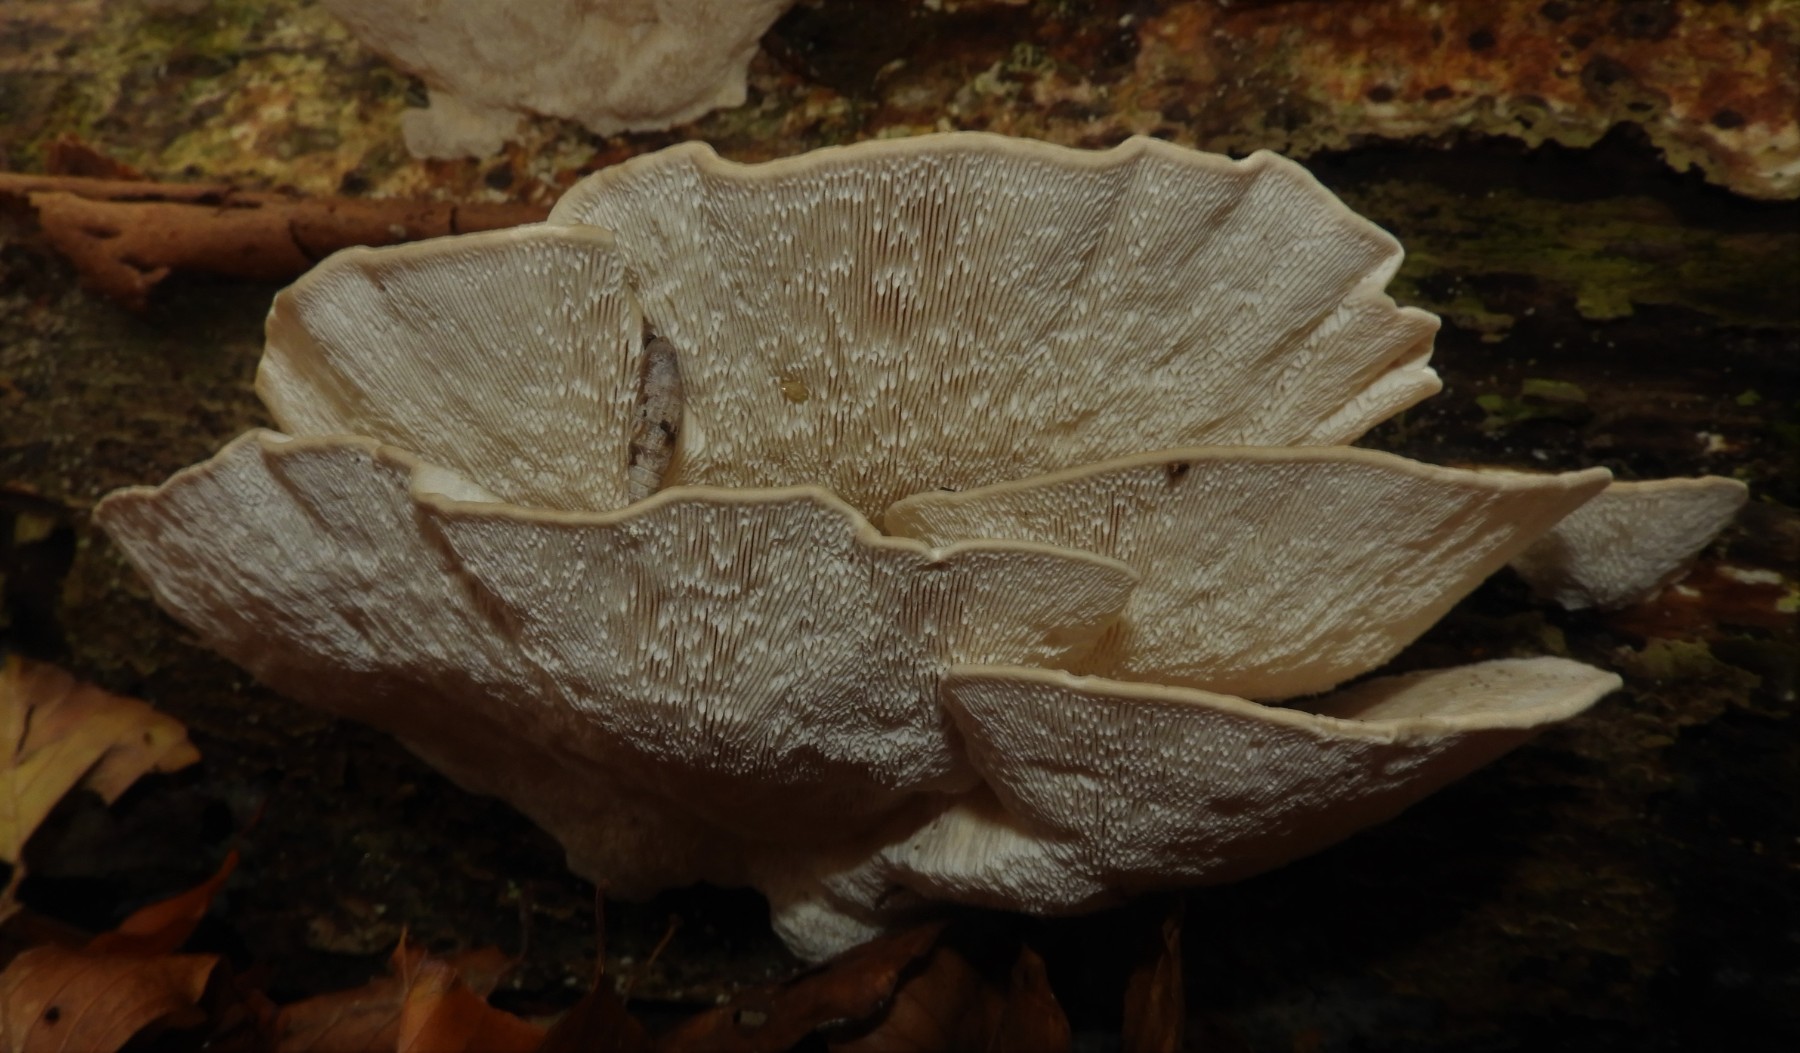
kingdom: Fungi
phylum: Basidiomycota
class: Agaricomycetes
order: Polyporales
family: Polyporaceae
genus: Trametes
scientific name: Trametes gibbosa
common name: puklet læderporesvamp
